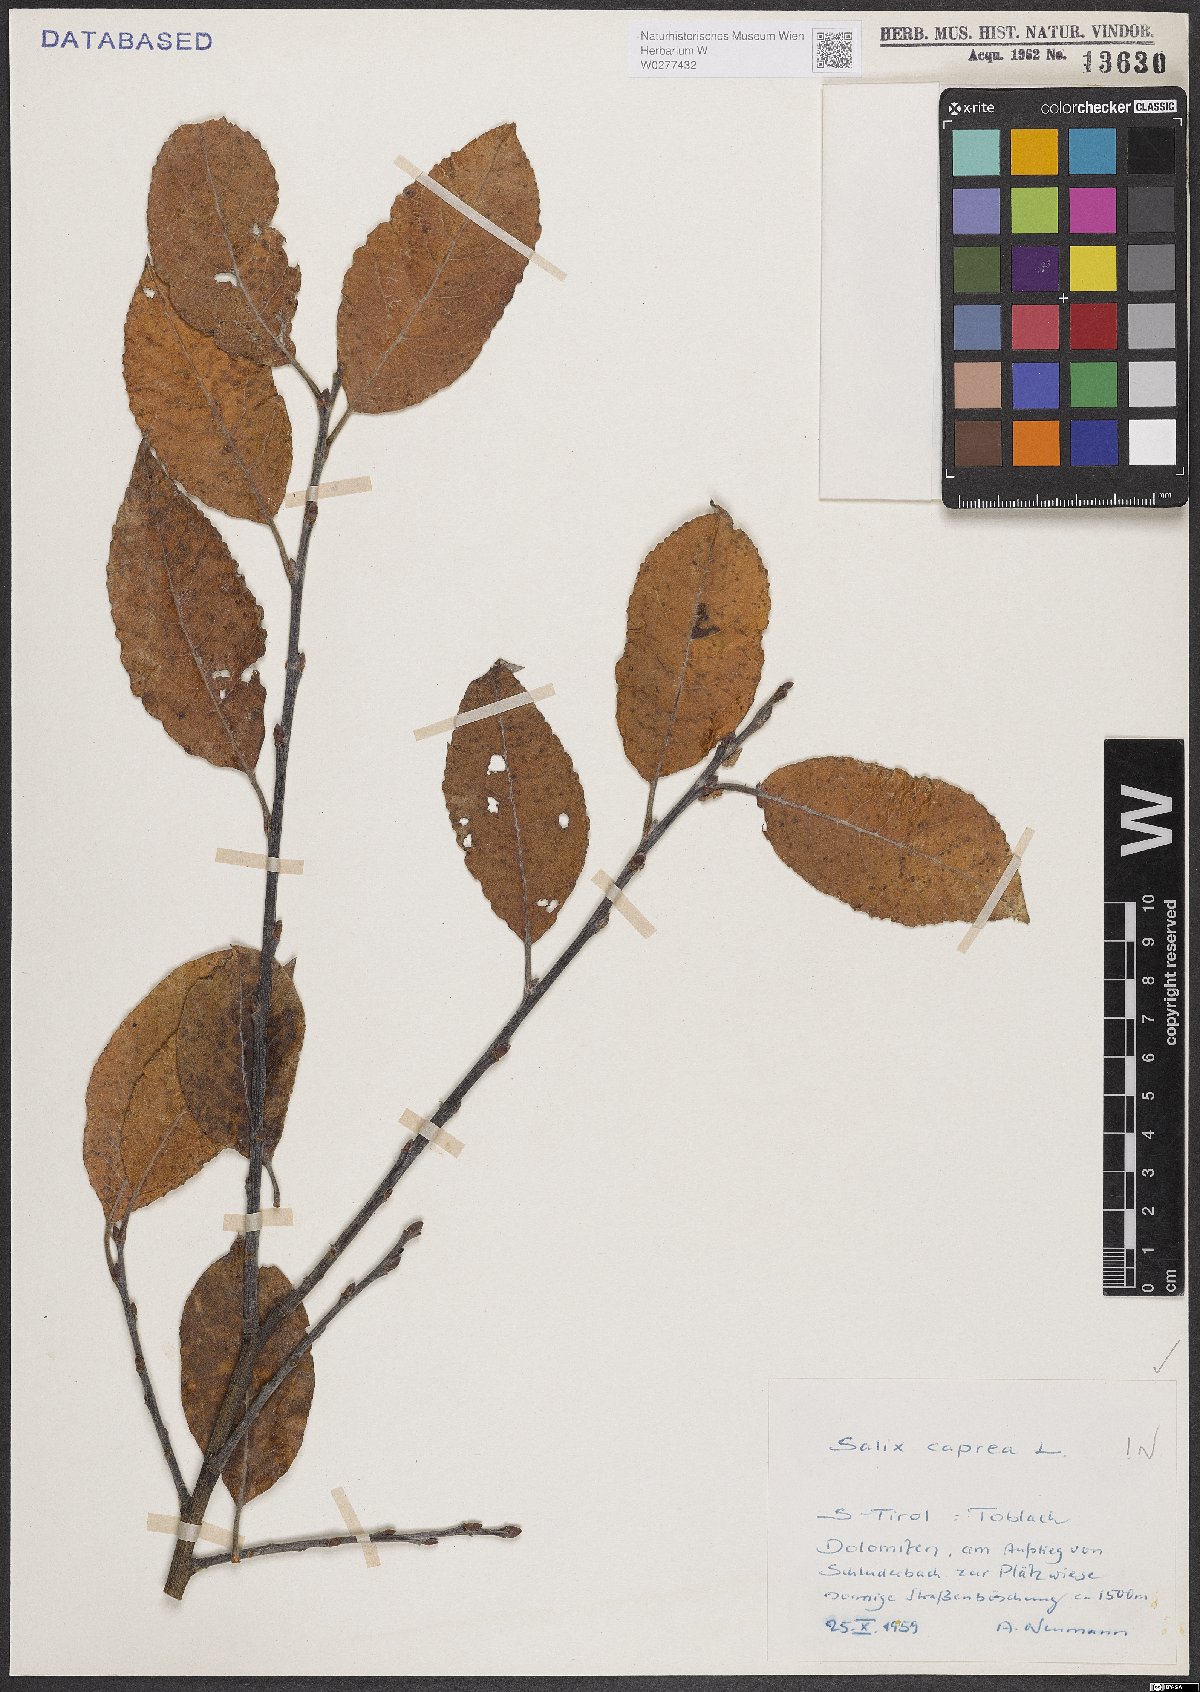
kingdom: Plantae
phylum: Tracheophyta
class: Magnoliopsida
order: Malpighiales
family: Salicaceae
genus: Salix
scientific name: Salix caprea
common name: Goat willow
